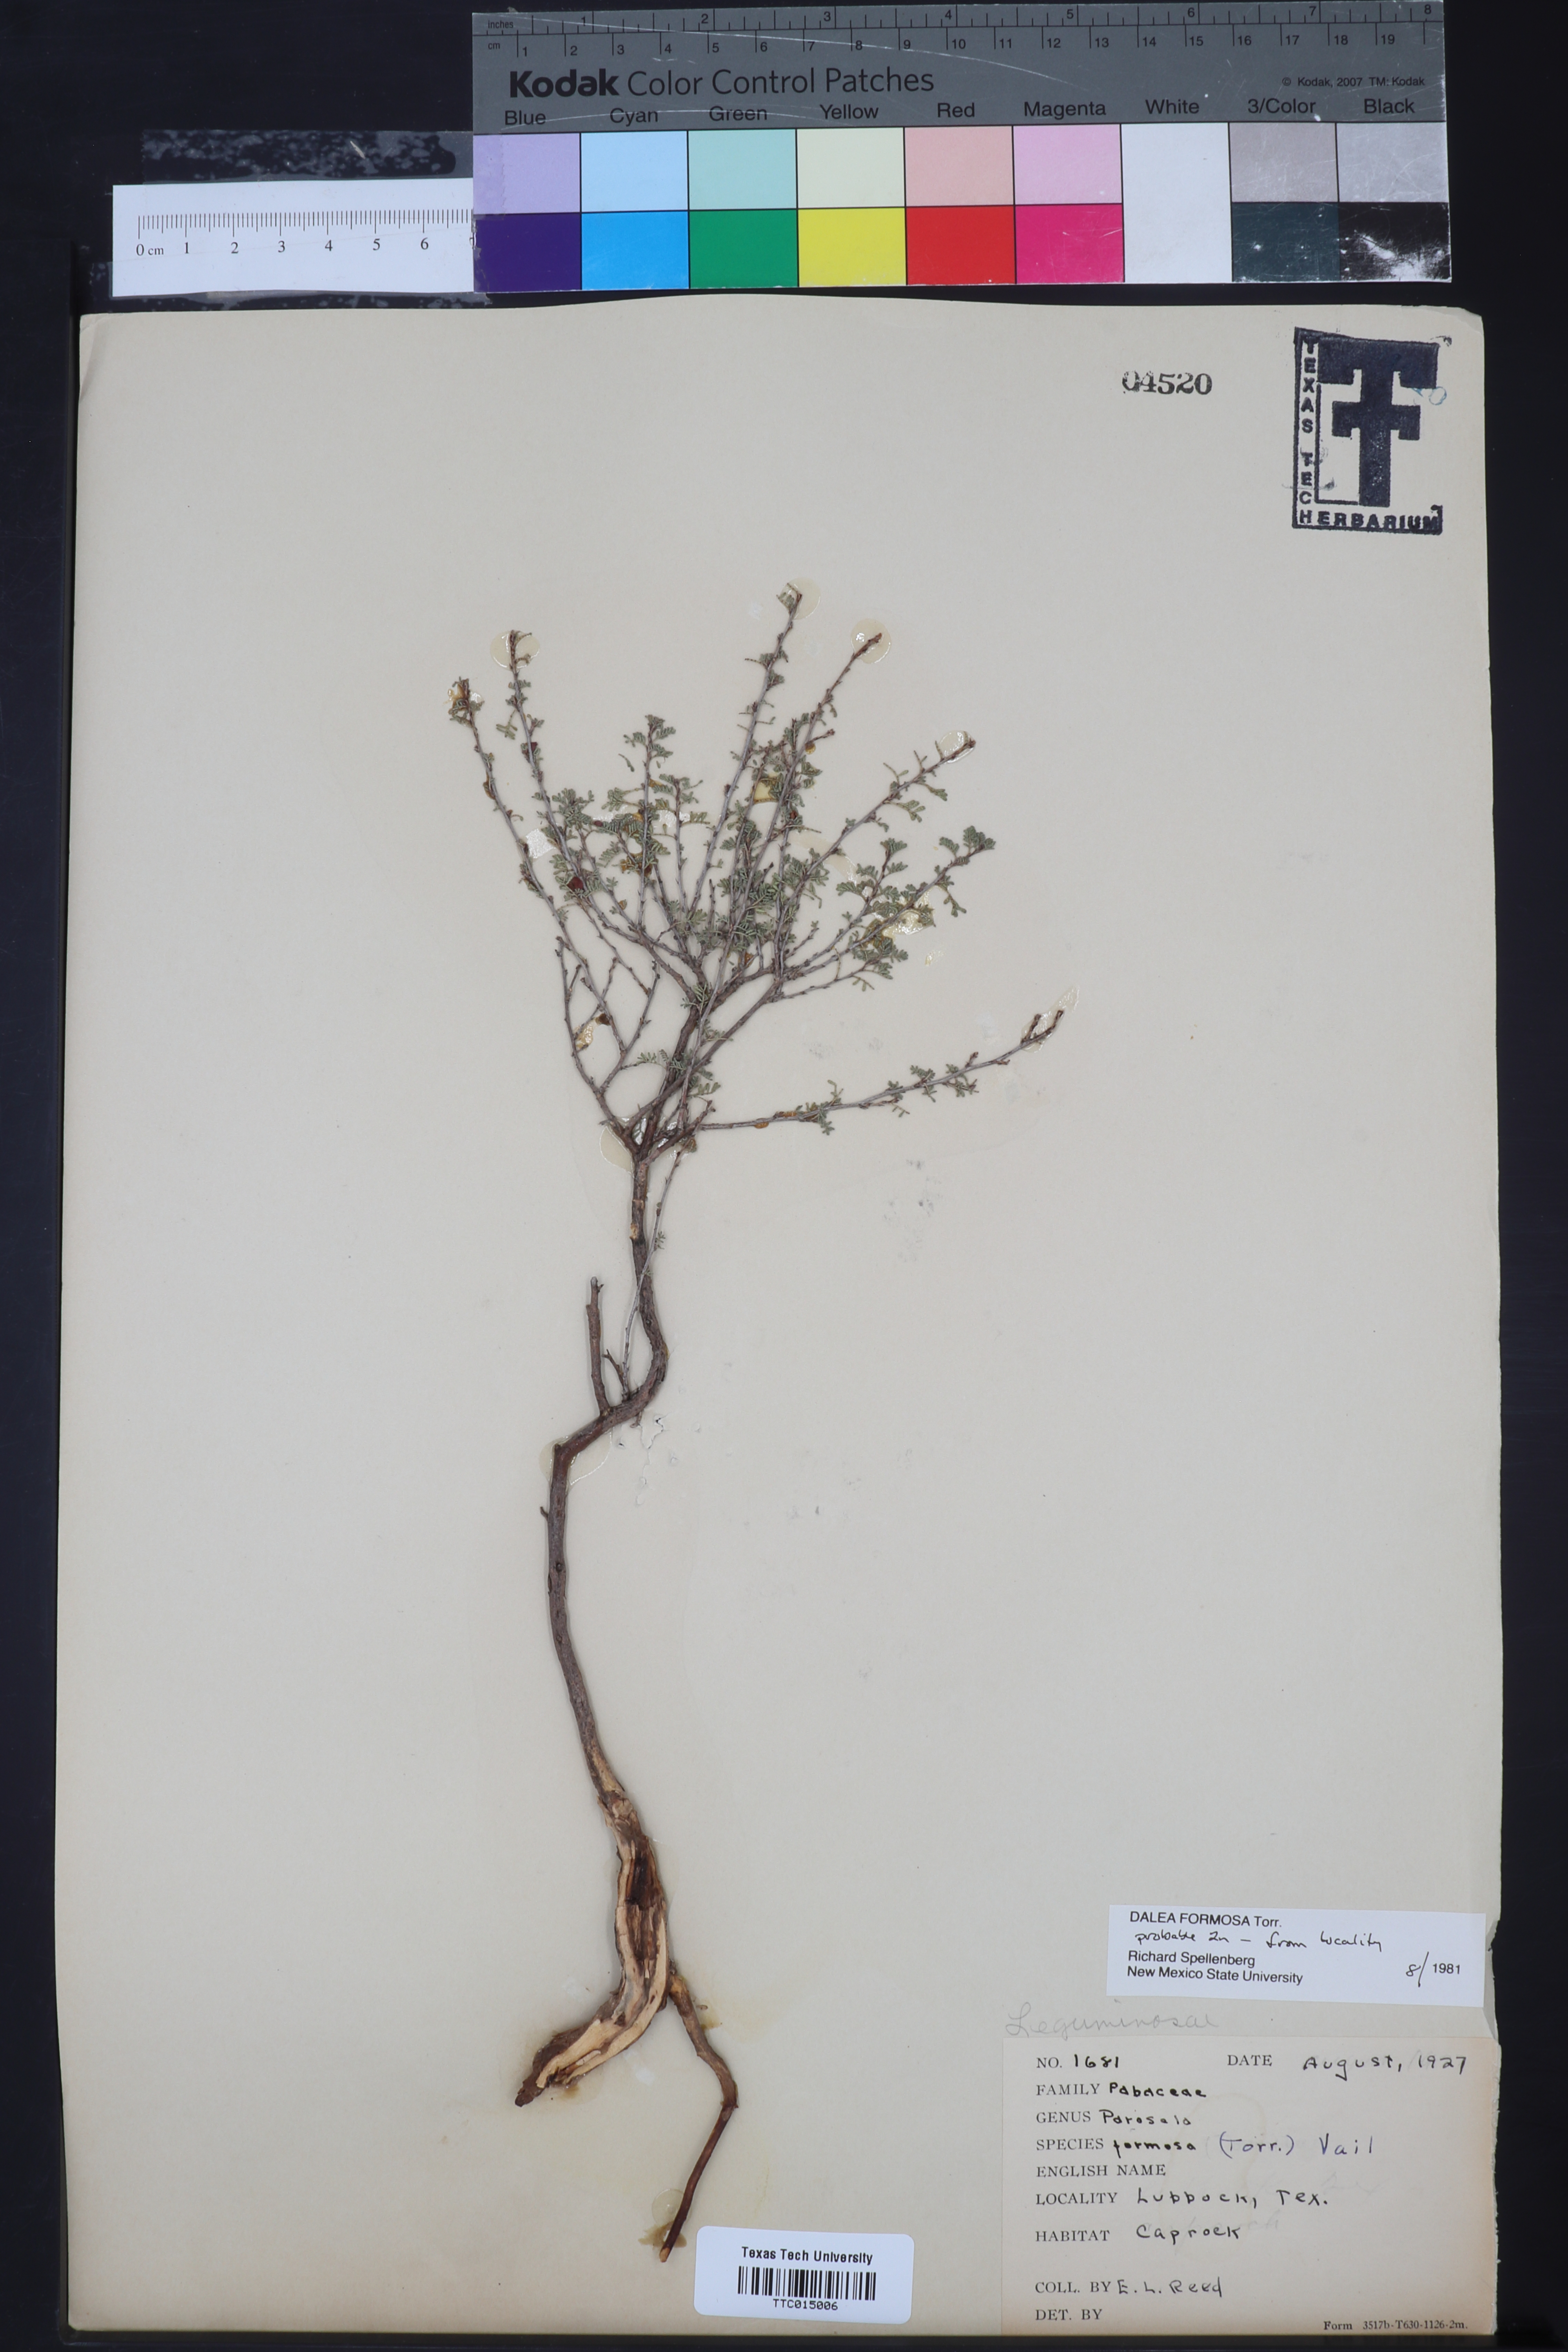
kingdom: Plantae
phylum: Tracheophyta
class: Magnoliopsida
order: Fabales
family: Fabaceae
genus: Dalea
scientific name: Dalea formosa
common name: Feather-plume dalea
